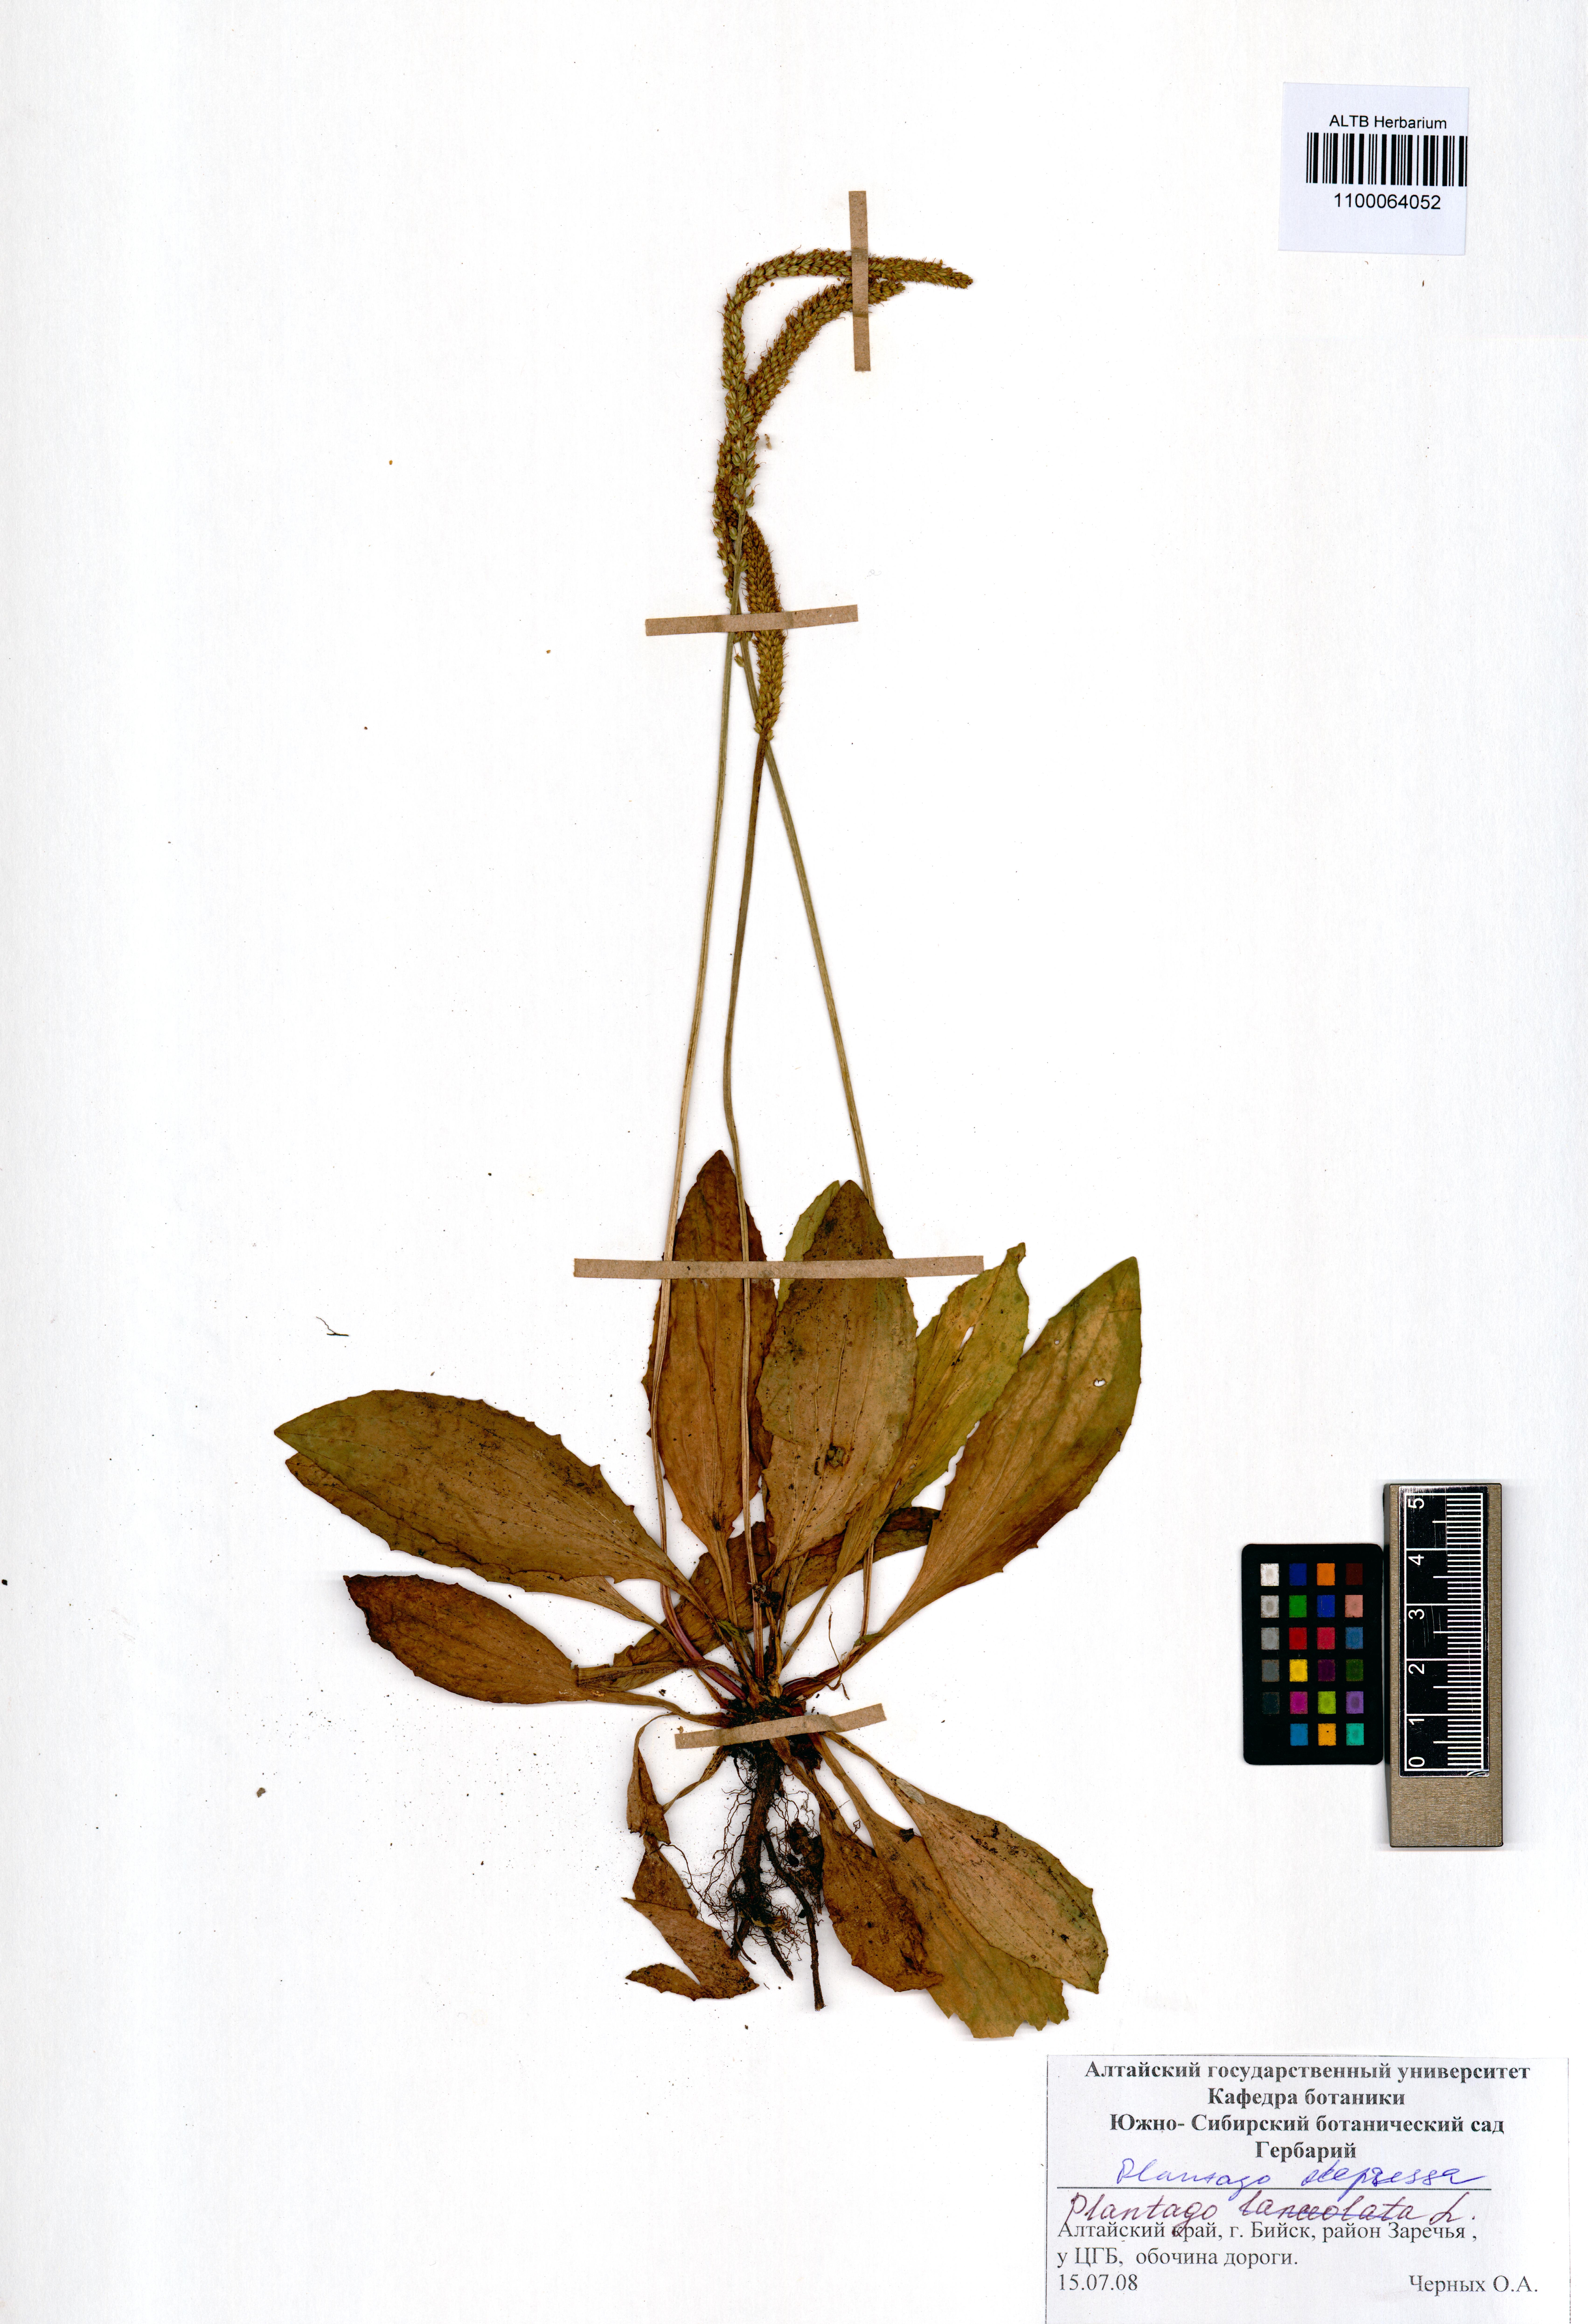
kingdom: Plantae
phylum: Tracheophyta
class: Magnoliopsida
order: Lamiales
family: Plantaginaceae
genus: Plantago
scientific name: Plantago depressa
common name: Depressed plantain
